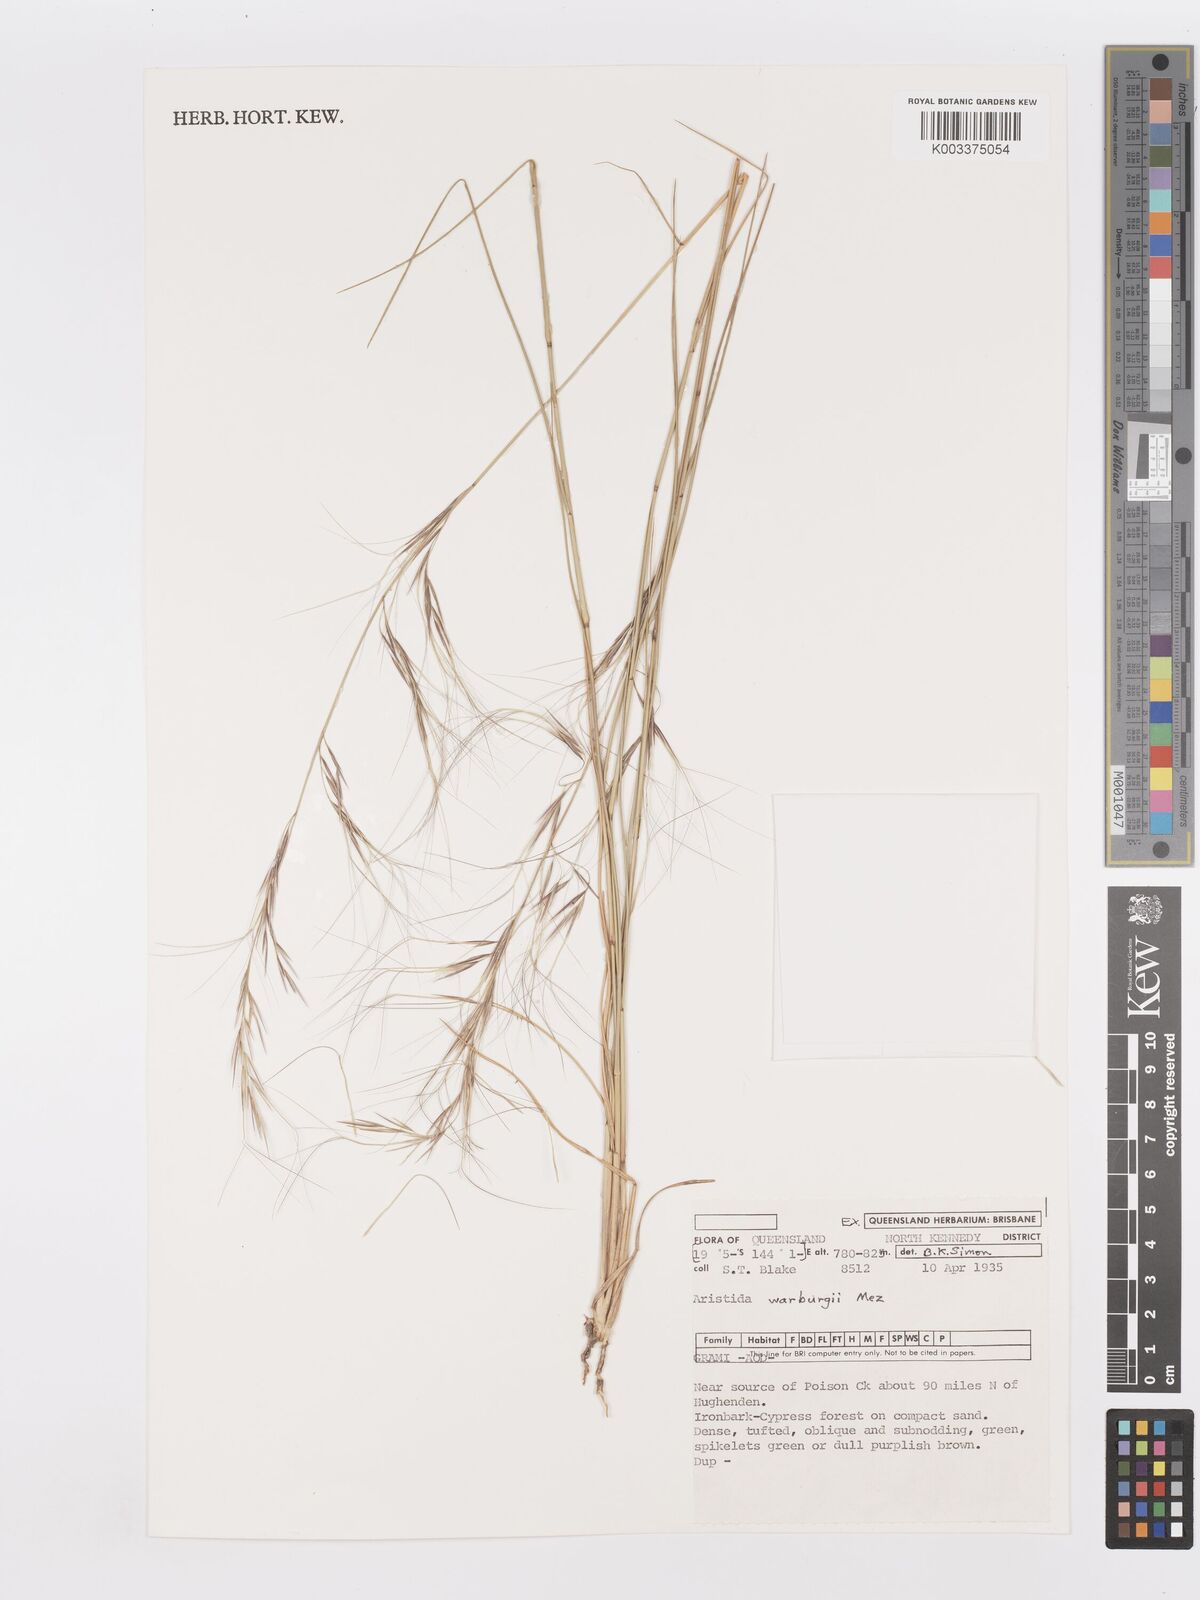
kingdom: Plantae
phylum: Tracheophyta
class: Liliopsida
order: Poales
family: Poaceae
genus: Aristida
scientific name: Aristida warburgii
